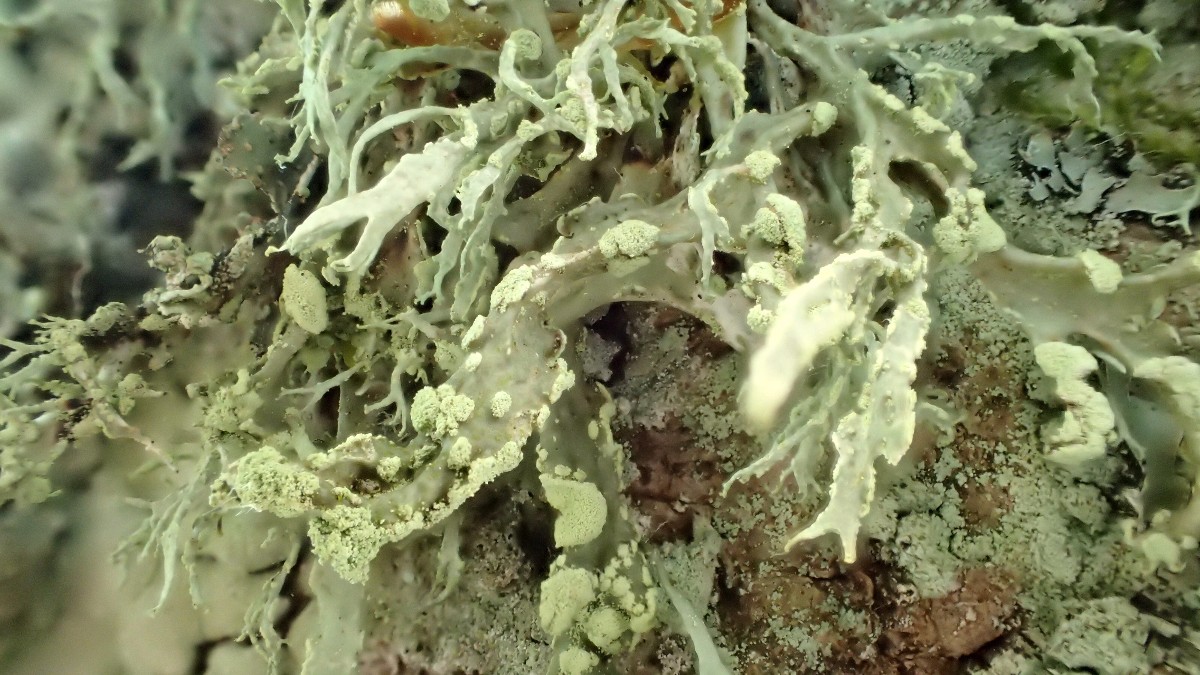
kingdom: Fungi
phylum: Ascomycota
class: Lecanoromycetes
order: Lecanorales
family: Ramalinaceae
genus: Ramalina
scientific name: Ramalina farinacea
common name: melet grenlav
